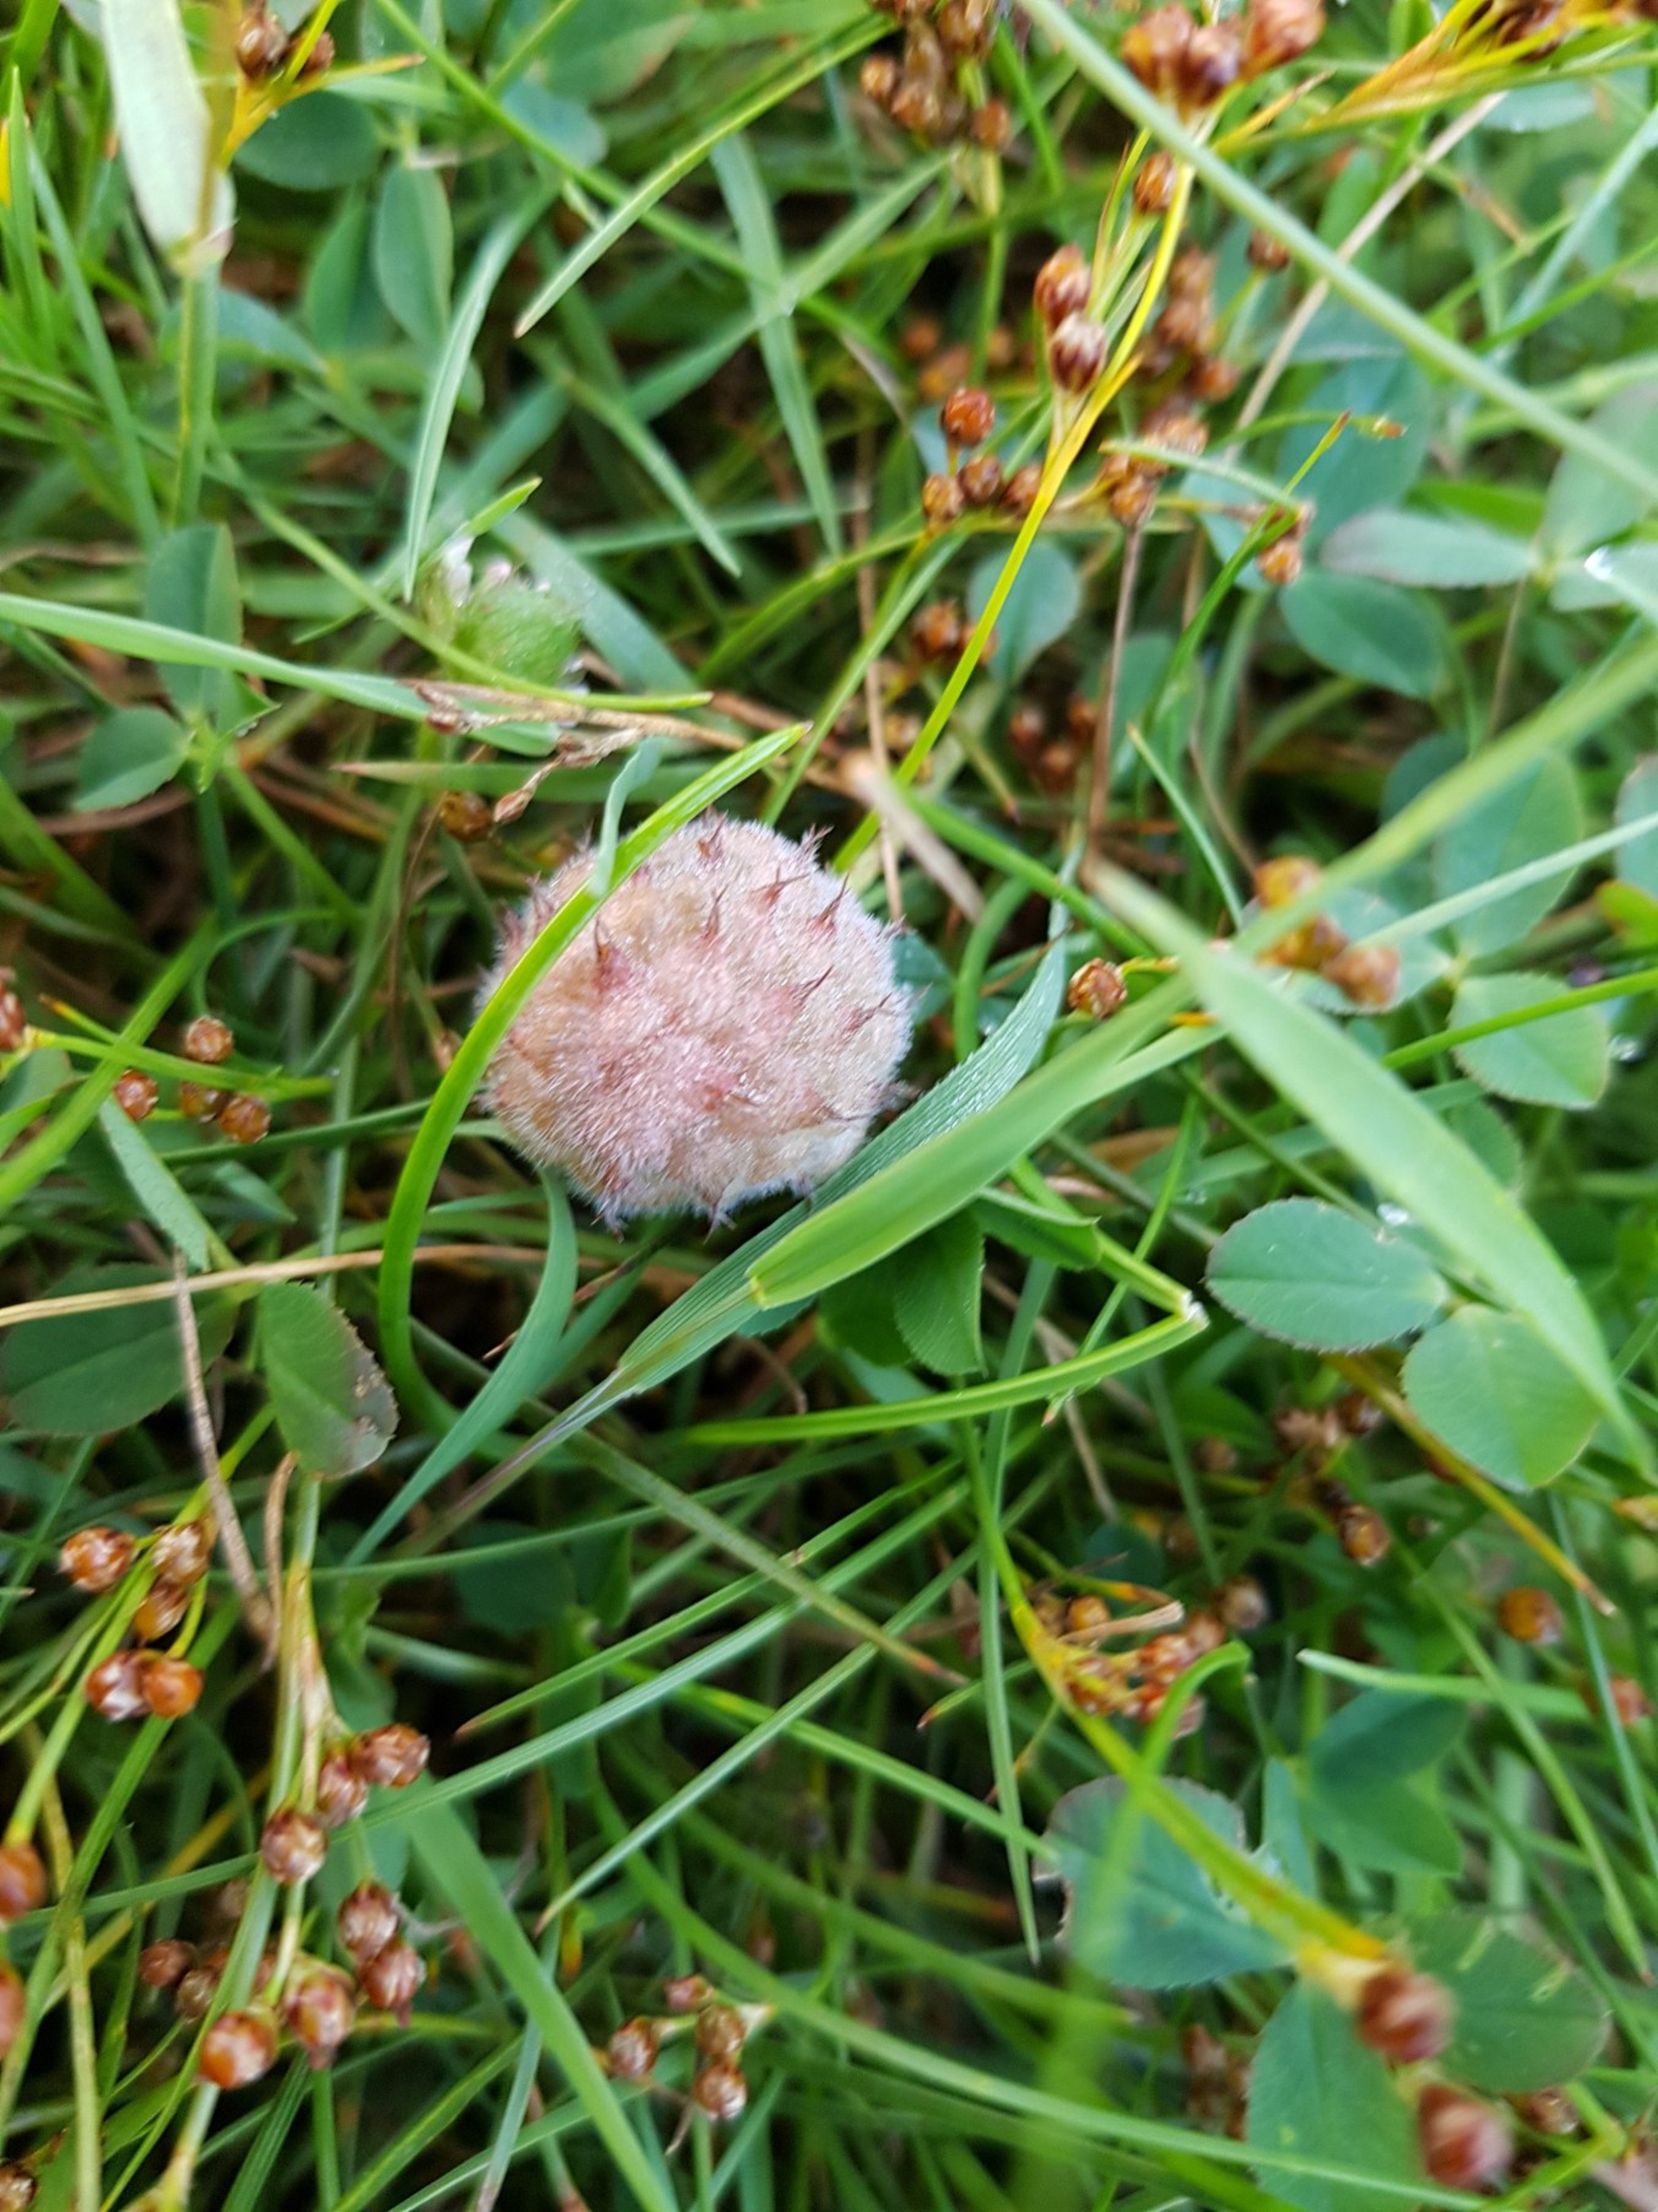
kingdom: Plantae
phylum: Tracheophyta
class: Magnoliopsida
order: Fabales
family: Fabaceae
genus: Trifolium
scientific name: Trifolium fragiferum
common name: Jordbær-kløver
